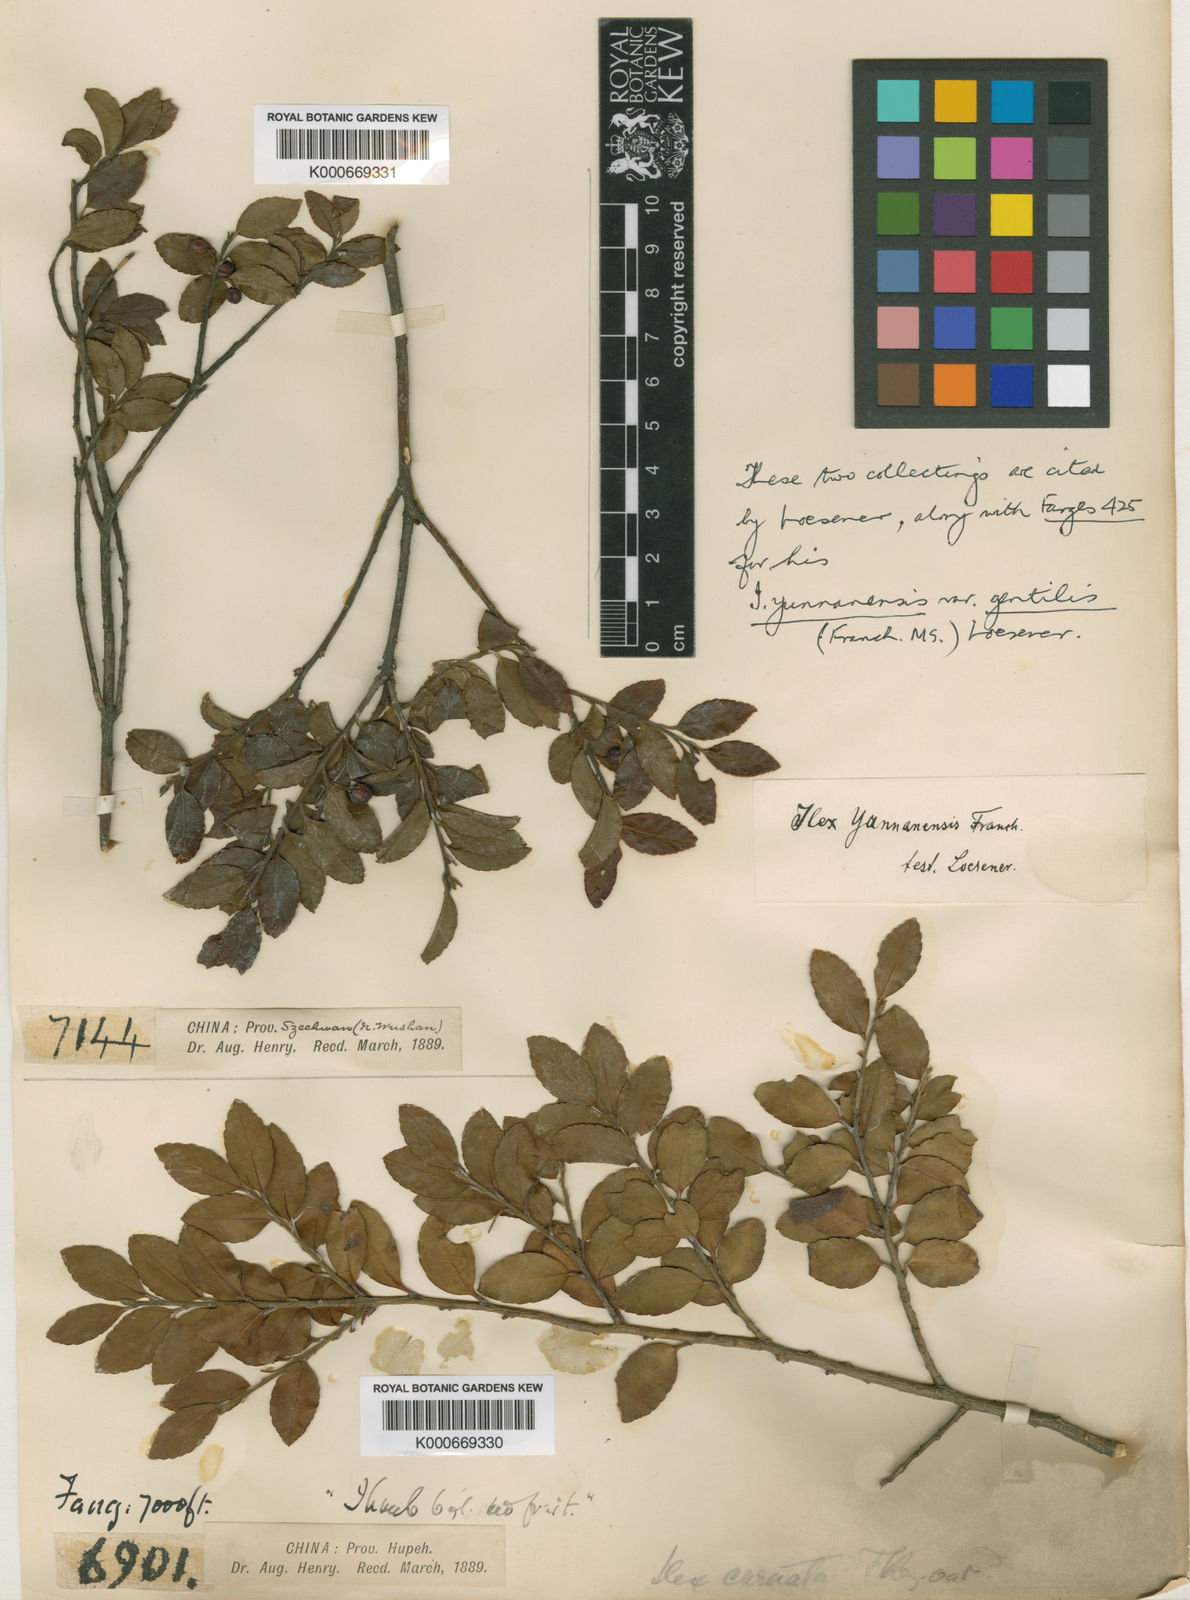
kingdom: Plantae
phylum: Tracheophyta
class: Magnoliopsida
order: Aquifoliales
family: Aquifoliaceae
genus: Ilex
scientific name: Ilex yunnanensis
